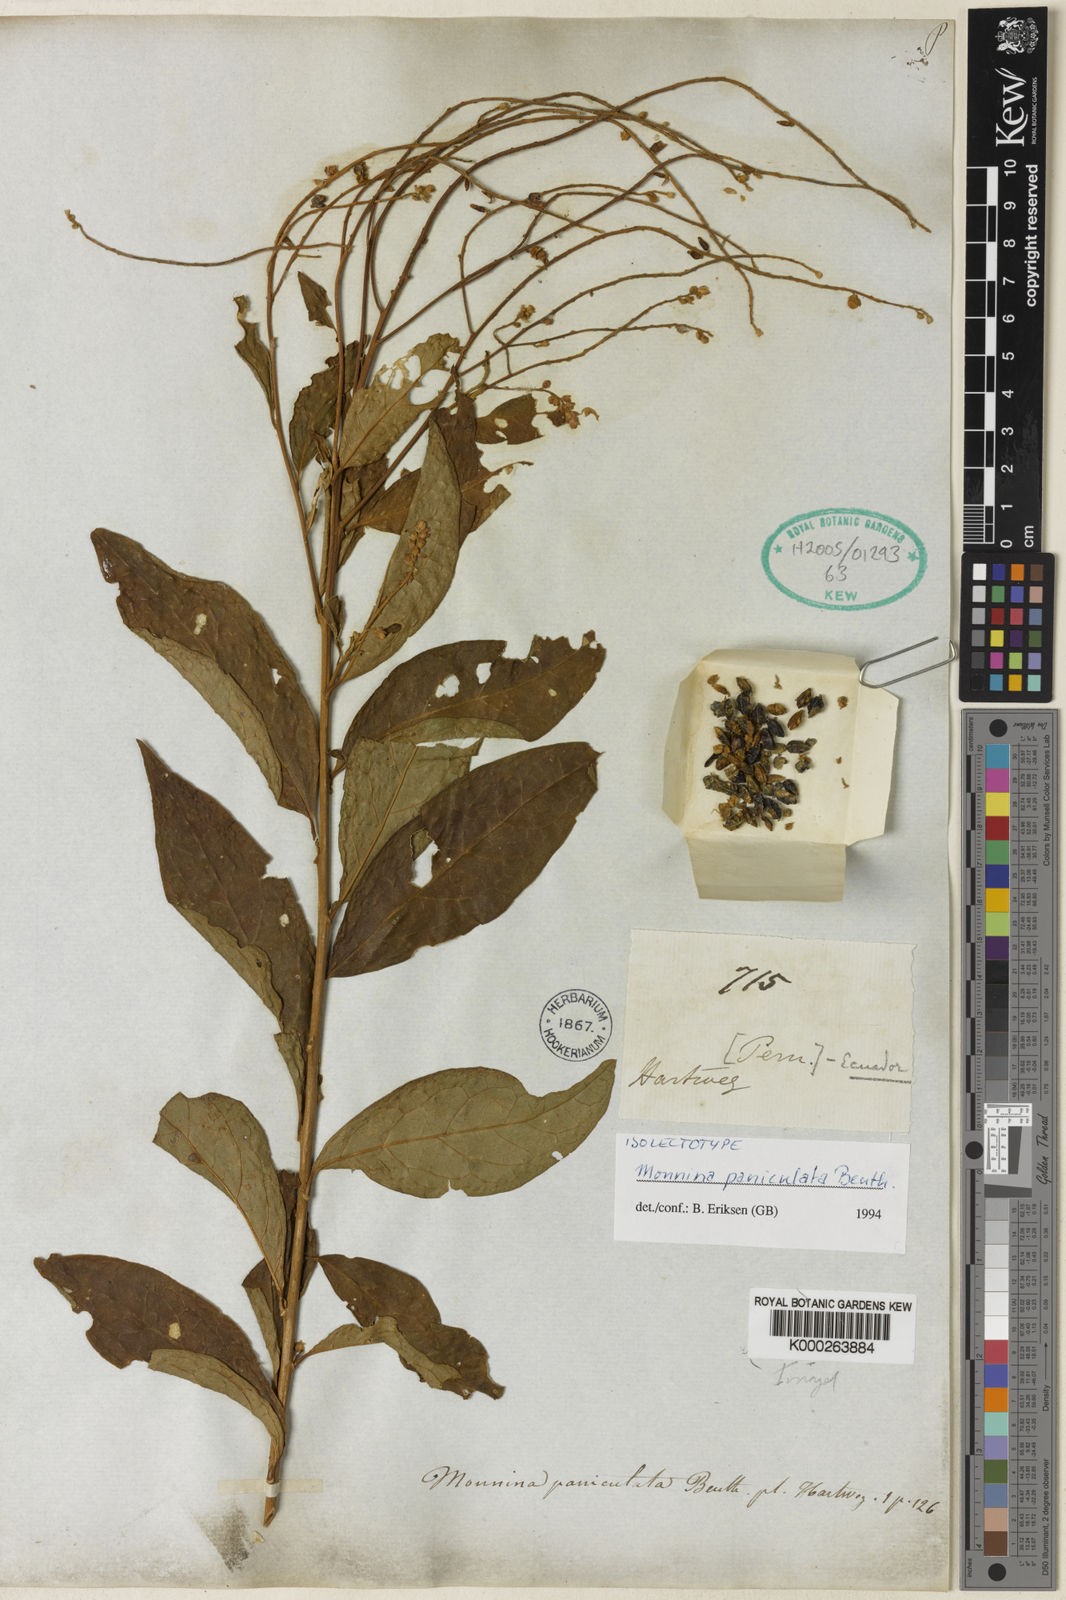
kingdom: Plantae
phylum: Tracheophyta
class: Magnoliopsida
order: Fabales
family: Polygalaceae
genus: Monnina
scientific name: Monnina polystachya
